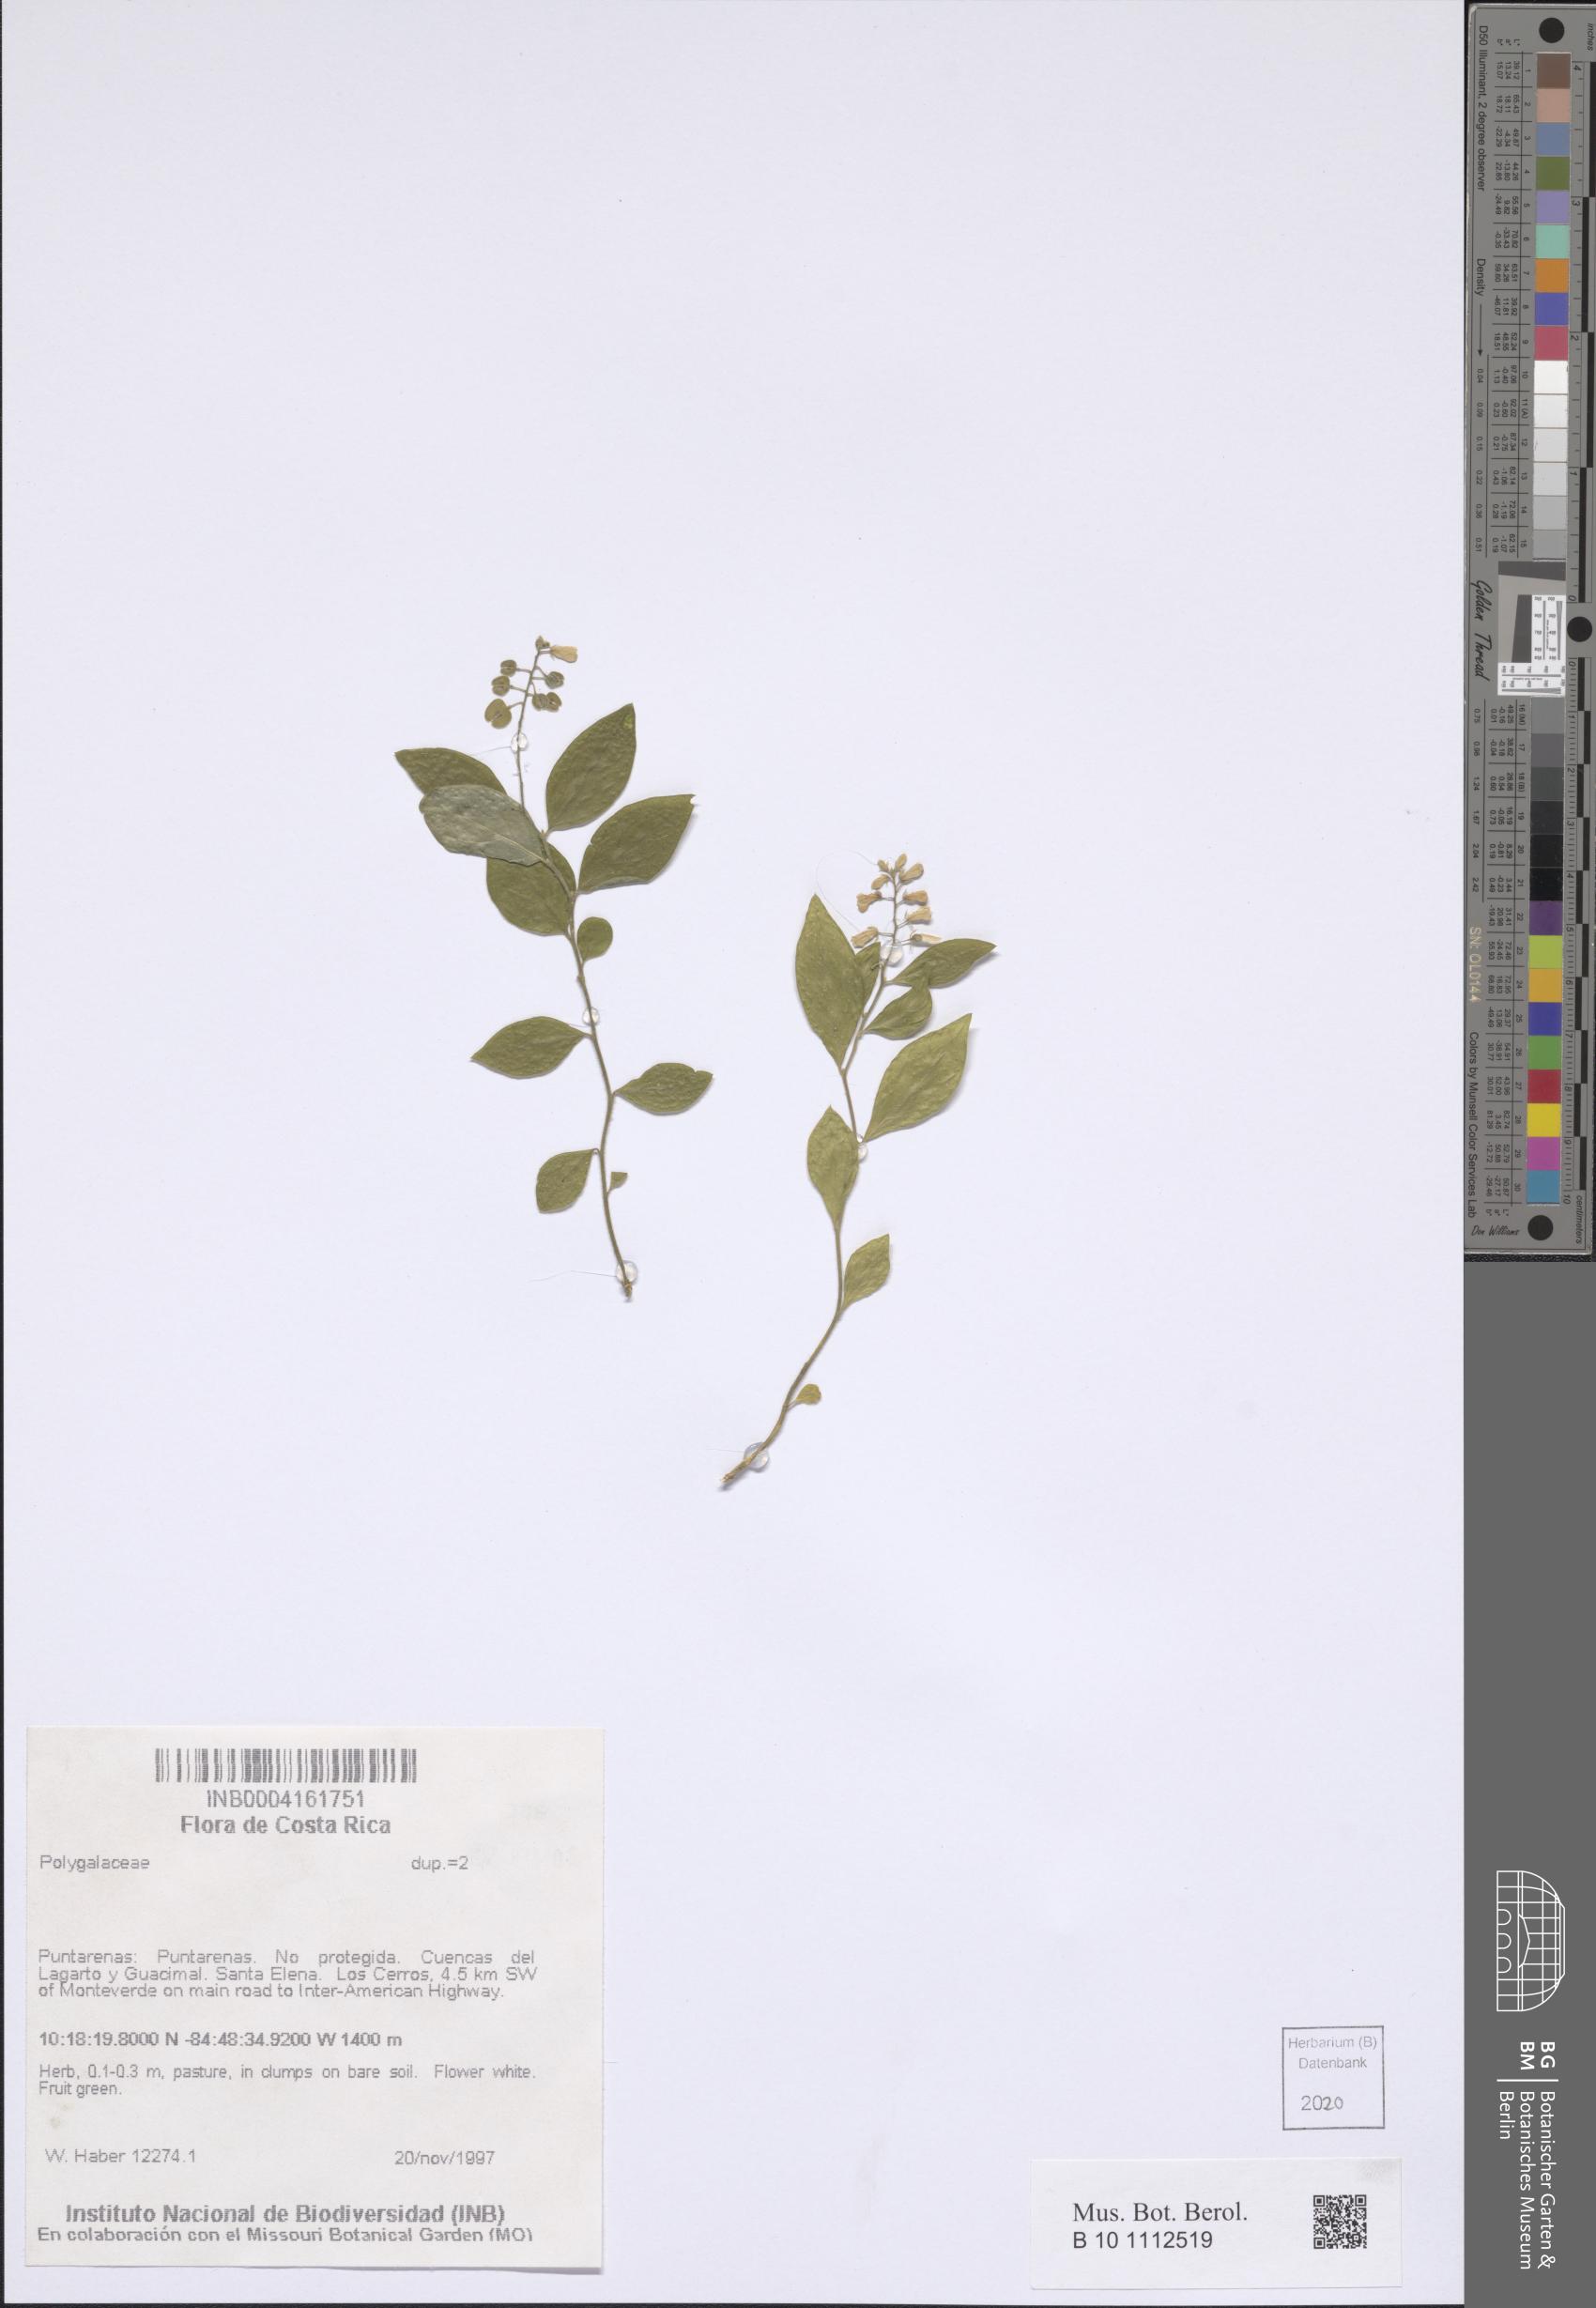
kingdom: Plantae
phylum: Tracheophyta
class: Magnoliopsida
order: Fabales
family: Polygalaceae
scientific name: Polygalaceae
